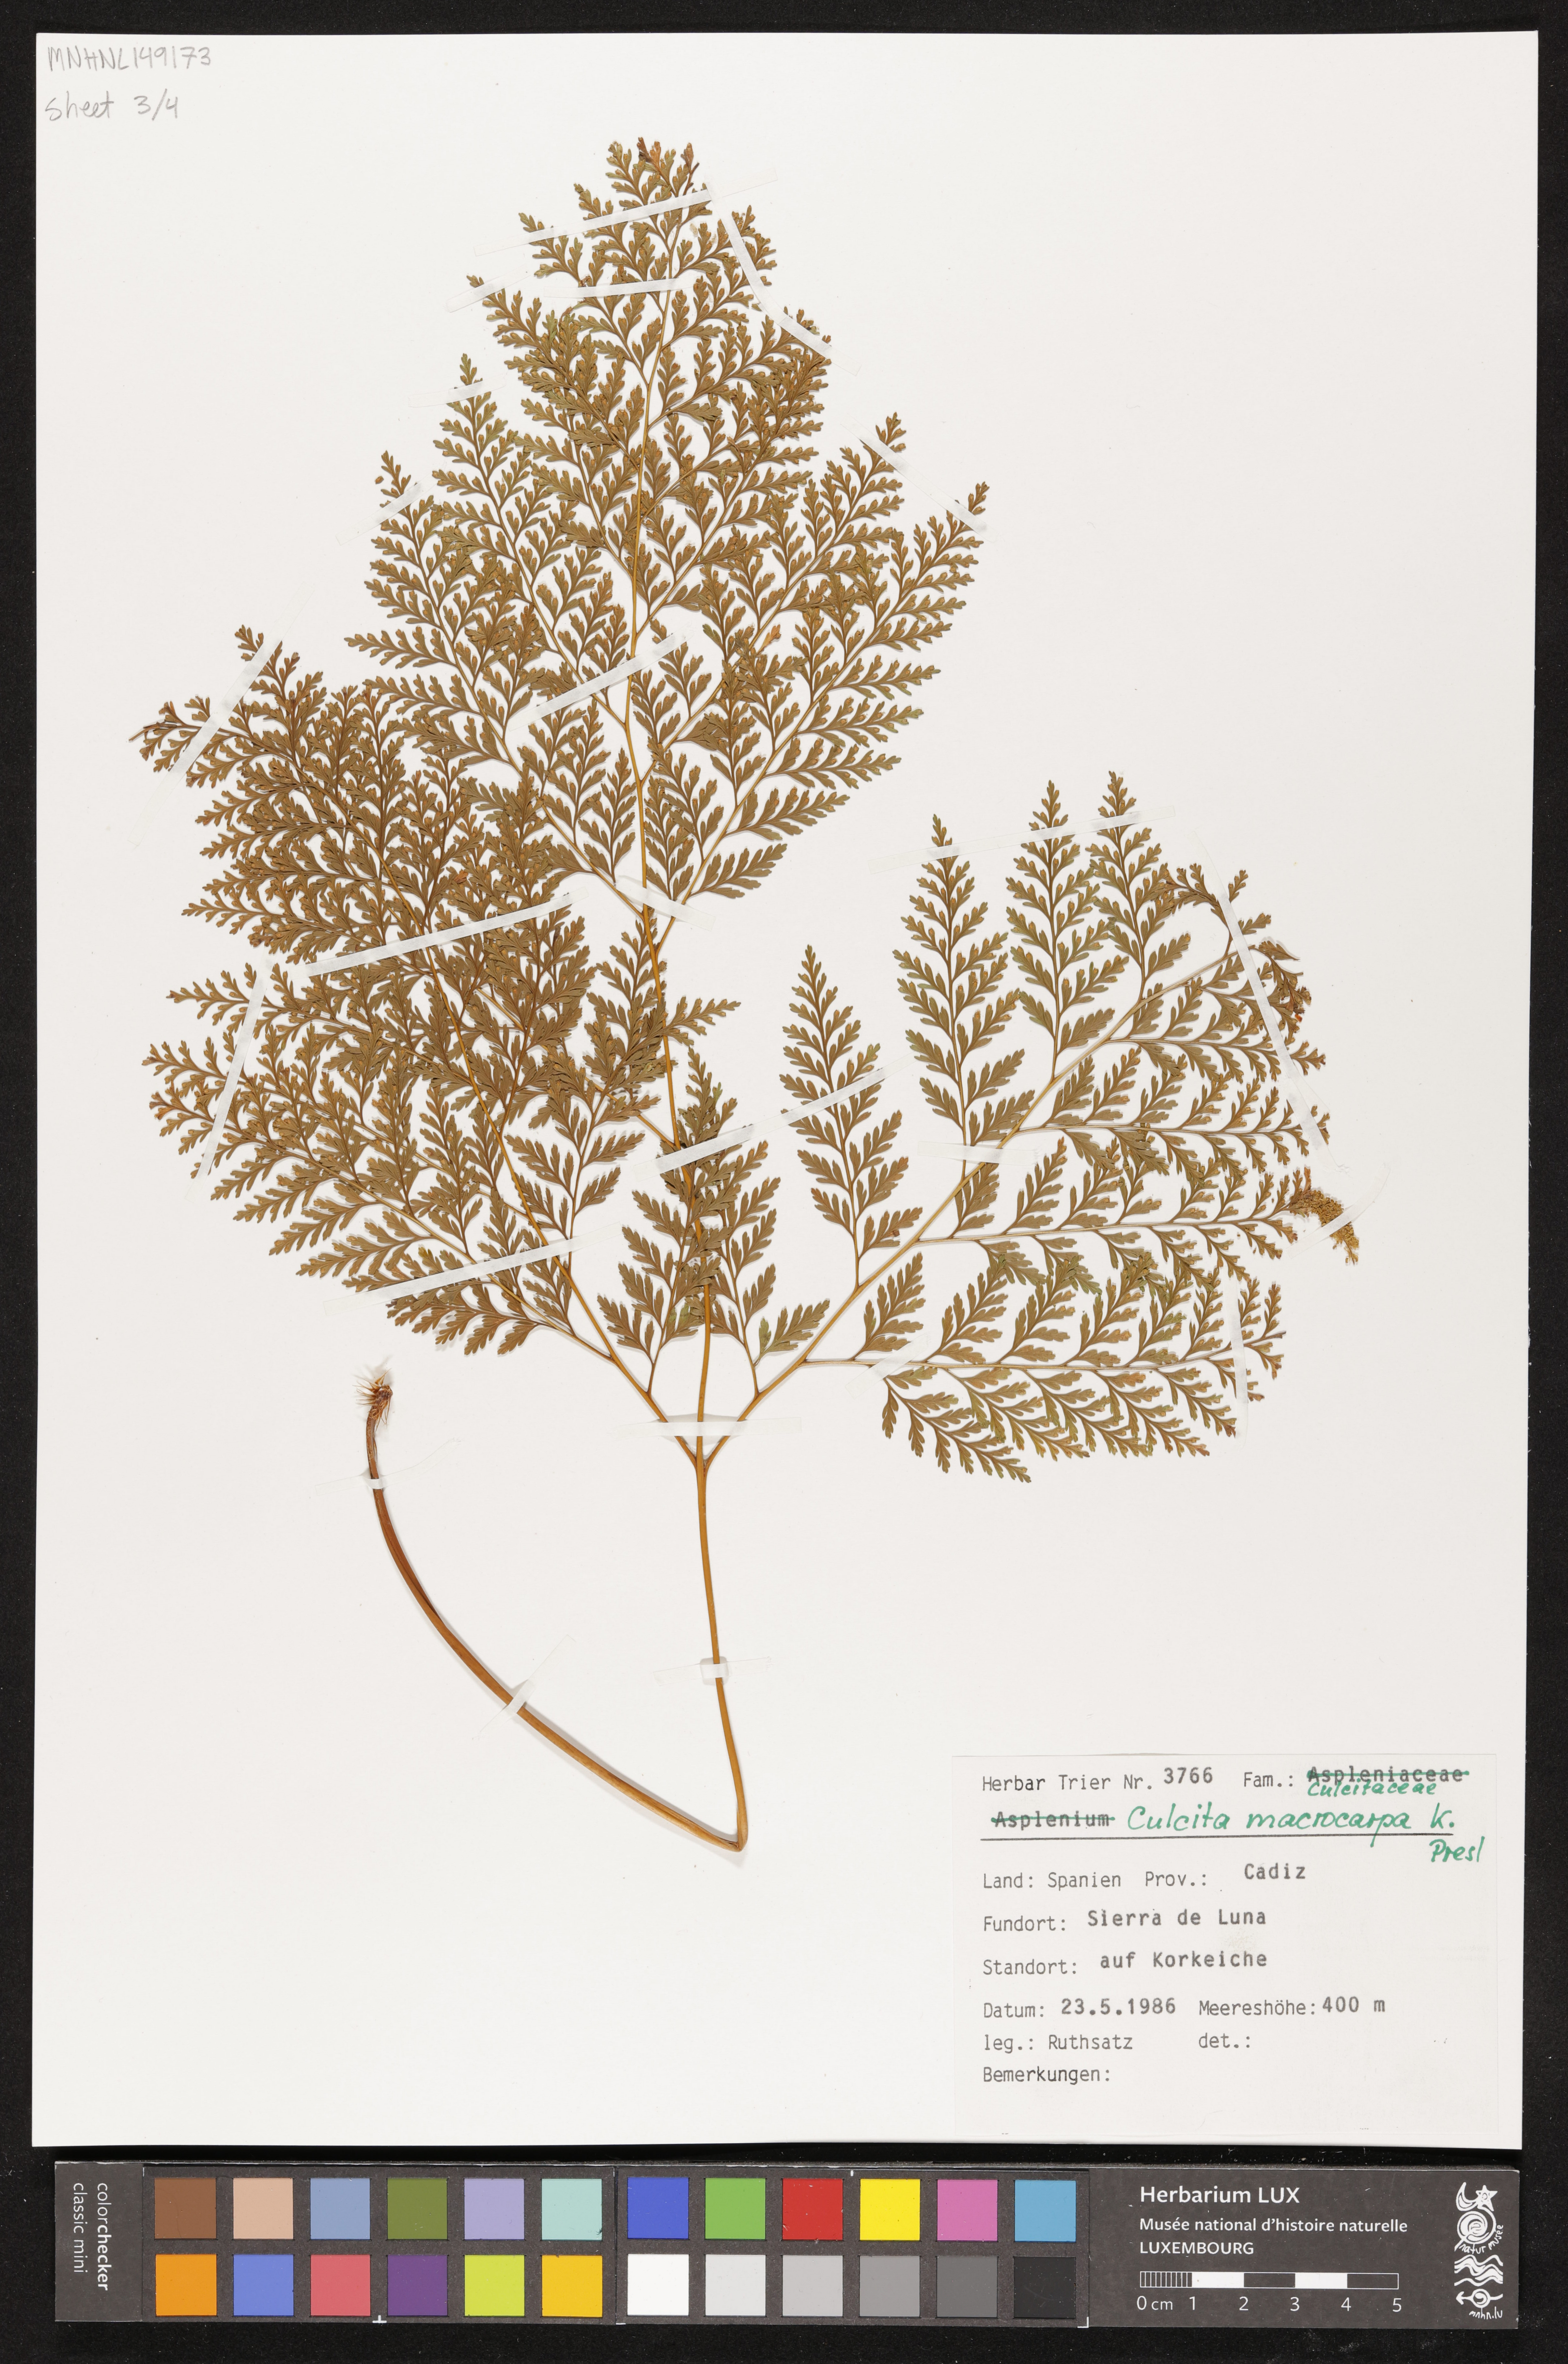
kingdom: Plantae
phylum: Tracheophyta
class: Polypodiopsida
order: Cyatheales
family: Culcitaceae
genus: Culcita
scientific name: Culcita macrocarpa
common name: Woolly tree fern
